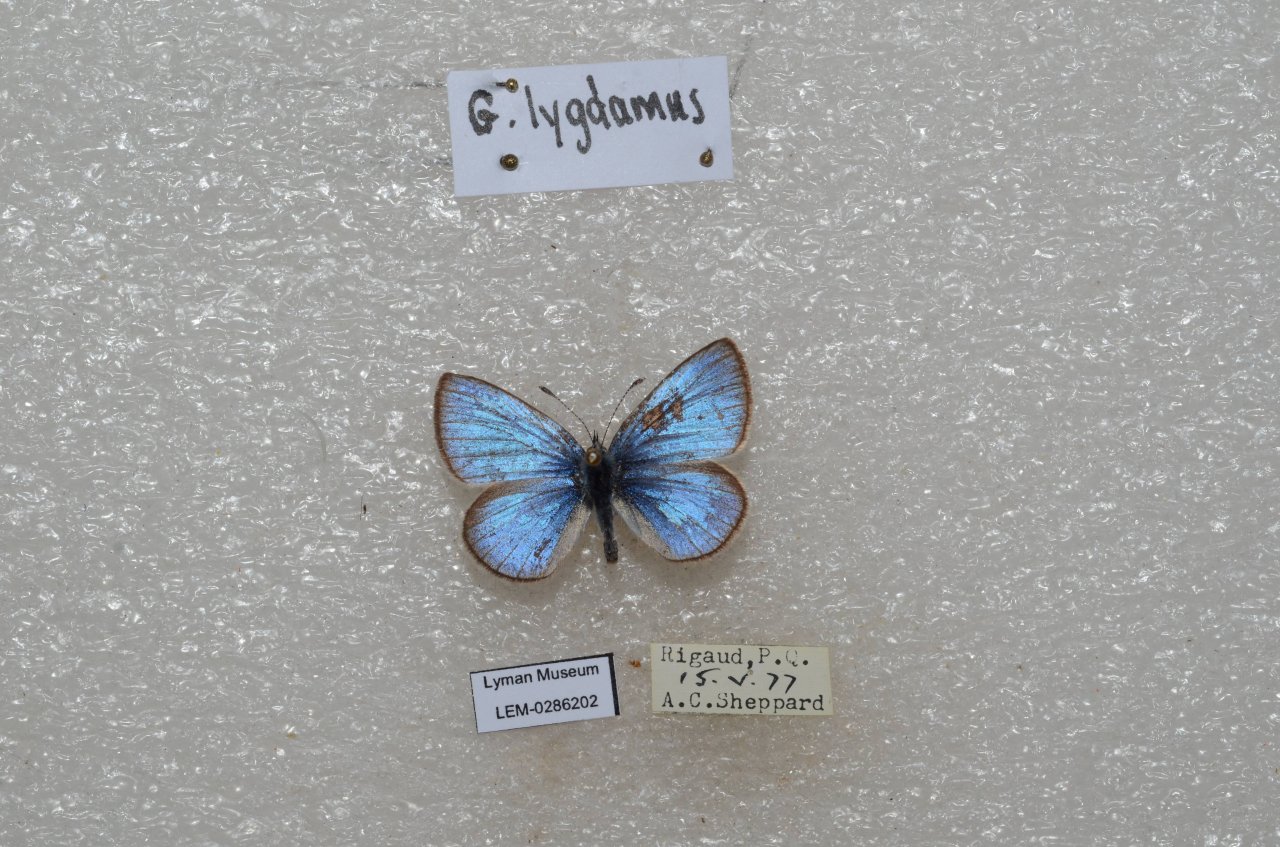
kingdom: Animalia
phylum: Arthropoda
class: Insecta
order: Lepidoptera
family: Lycaenidae
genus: Glaucopsyche
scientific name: Glaucopsyche lygdamus
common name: Silvery Blue
